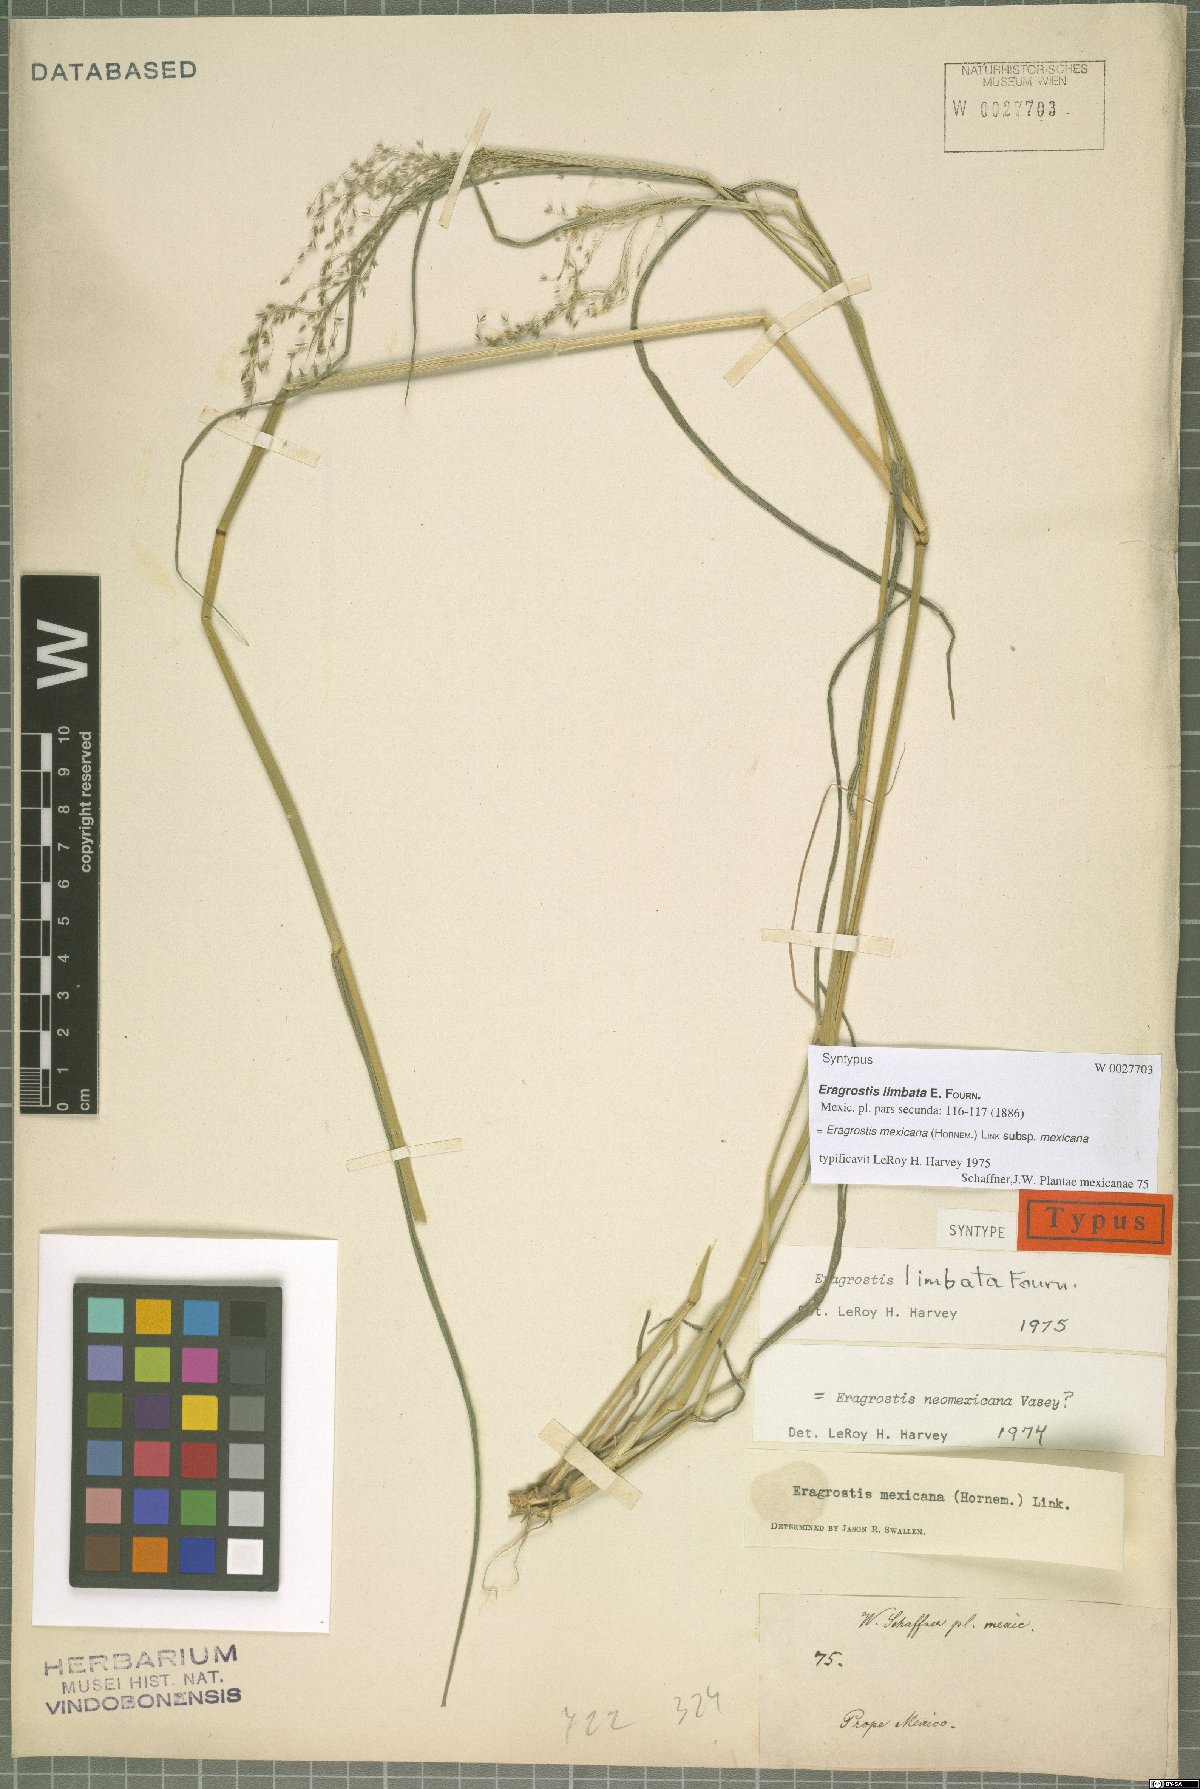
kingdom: Plantae
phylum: Tracheophyta
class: Liliopsida
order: Poales
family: Poaceae
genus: Eragrostis
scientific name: Eragrostis mexicana
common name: Mexican love grass
